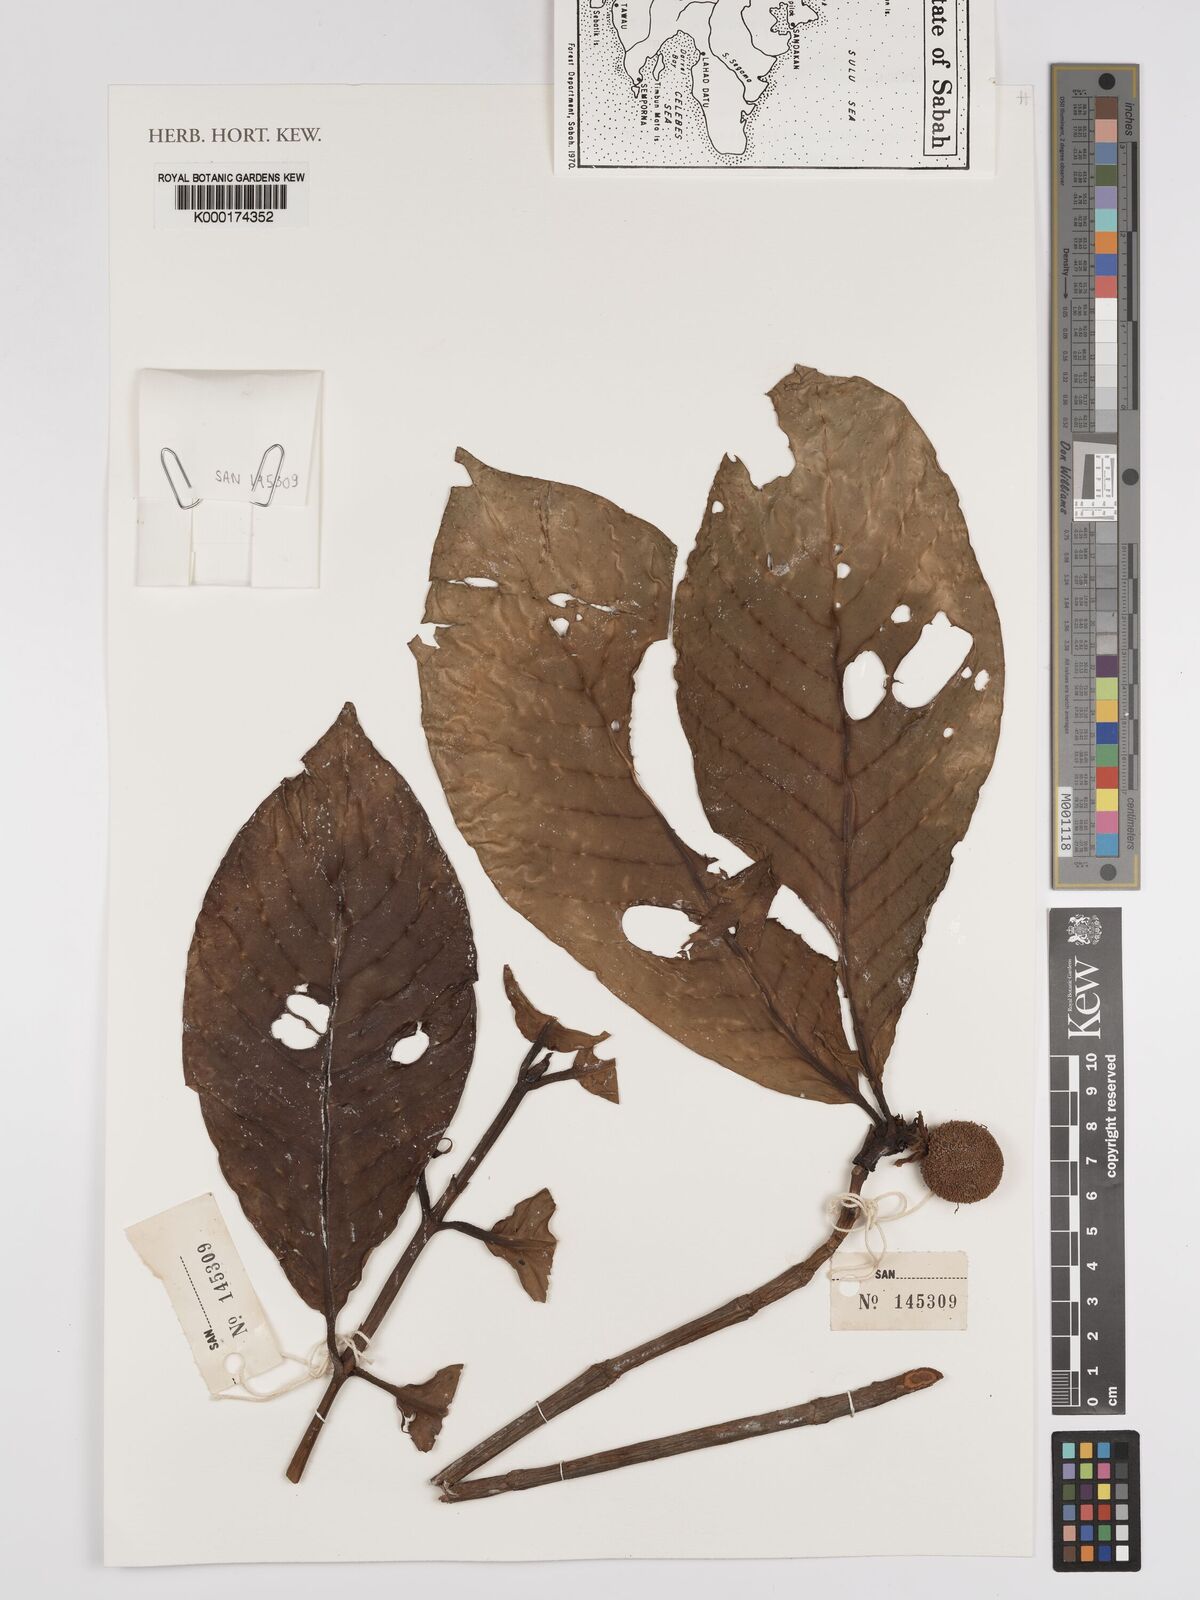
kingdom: Plantae
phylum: Tracheophyta
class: Magnoliopsida
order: Gentianales
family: Rubiaceae
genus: Neonauclea
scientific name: Neonauclea
